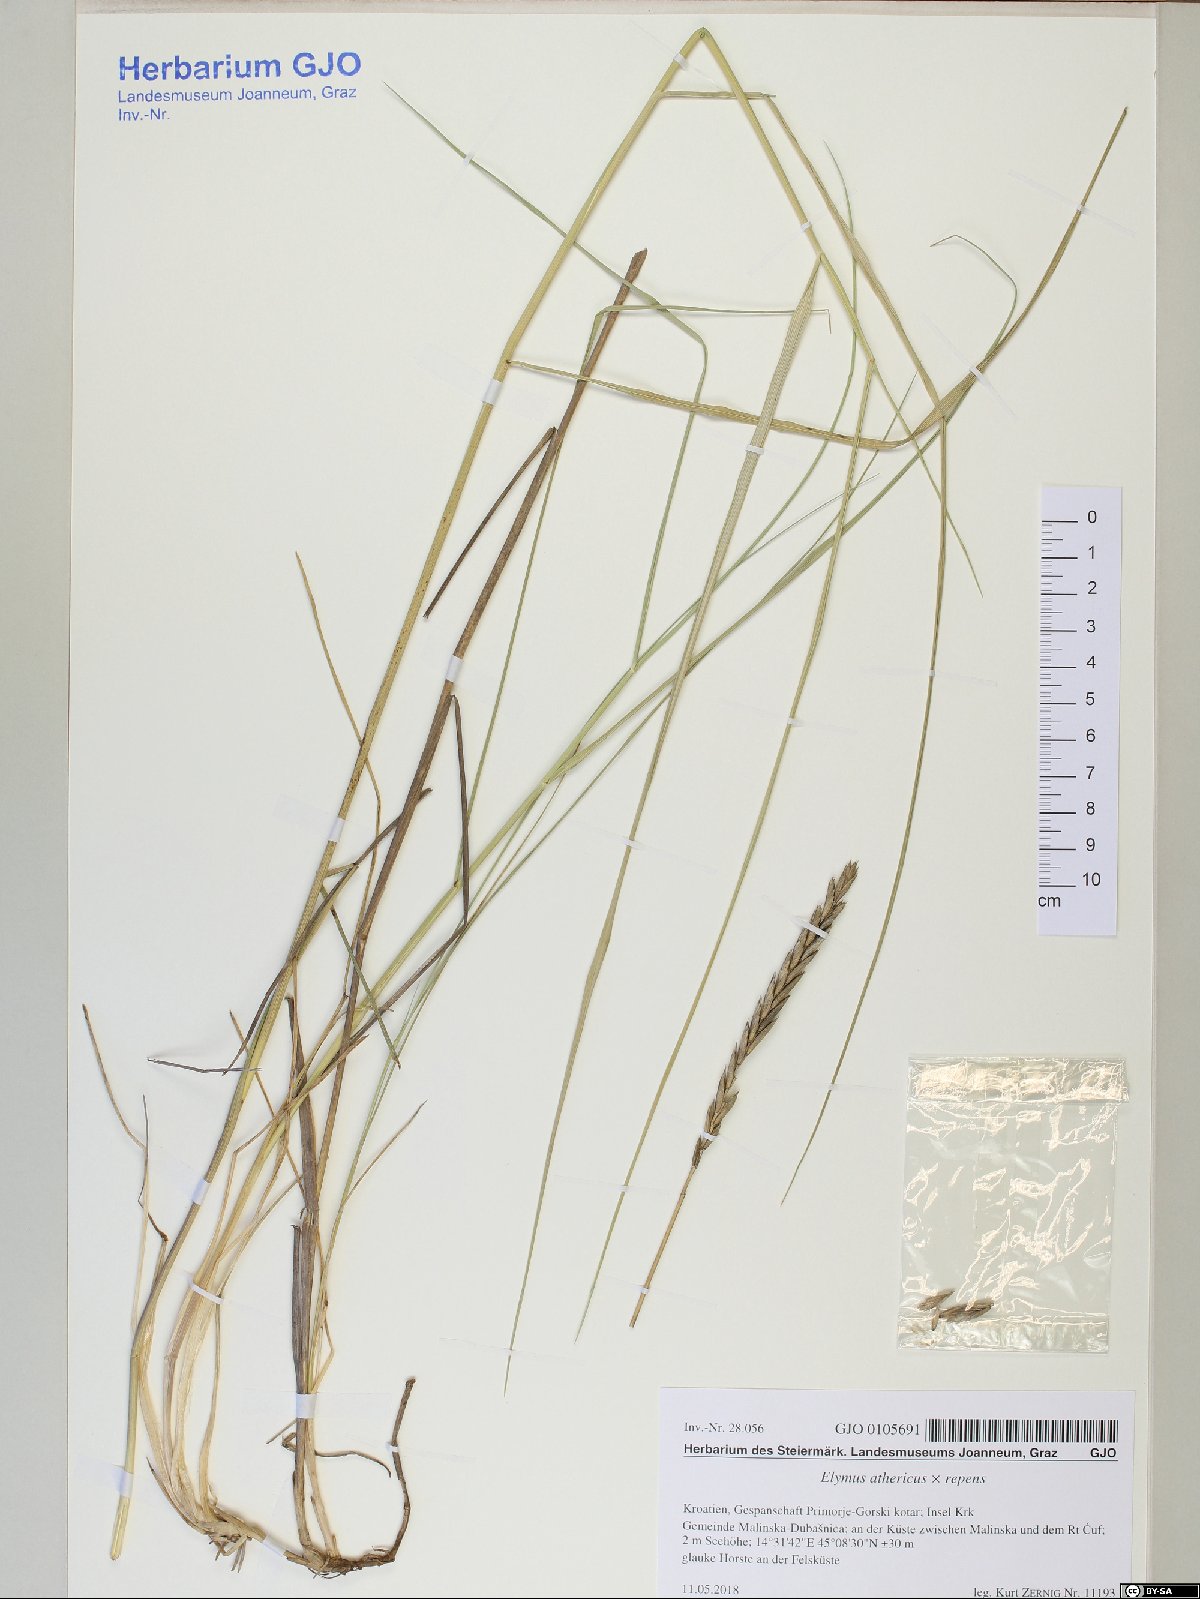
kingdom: Plantae
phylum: Tracheophyta
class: Liliopsida
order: Poales
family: Poaceae
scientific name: Poaceae
